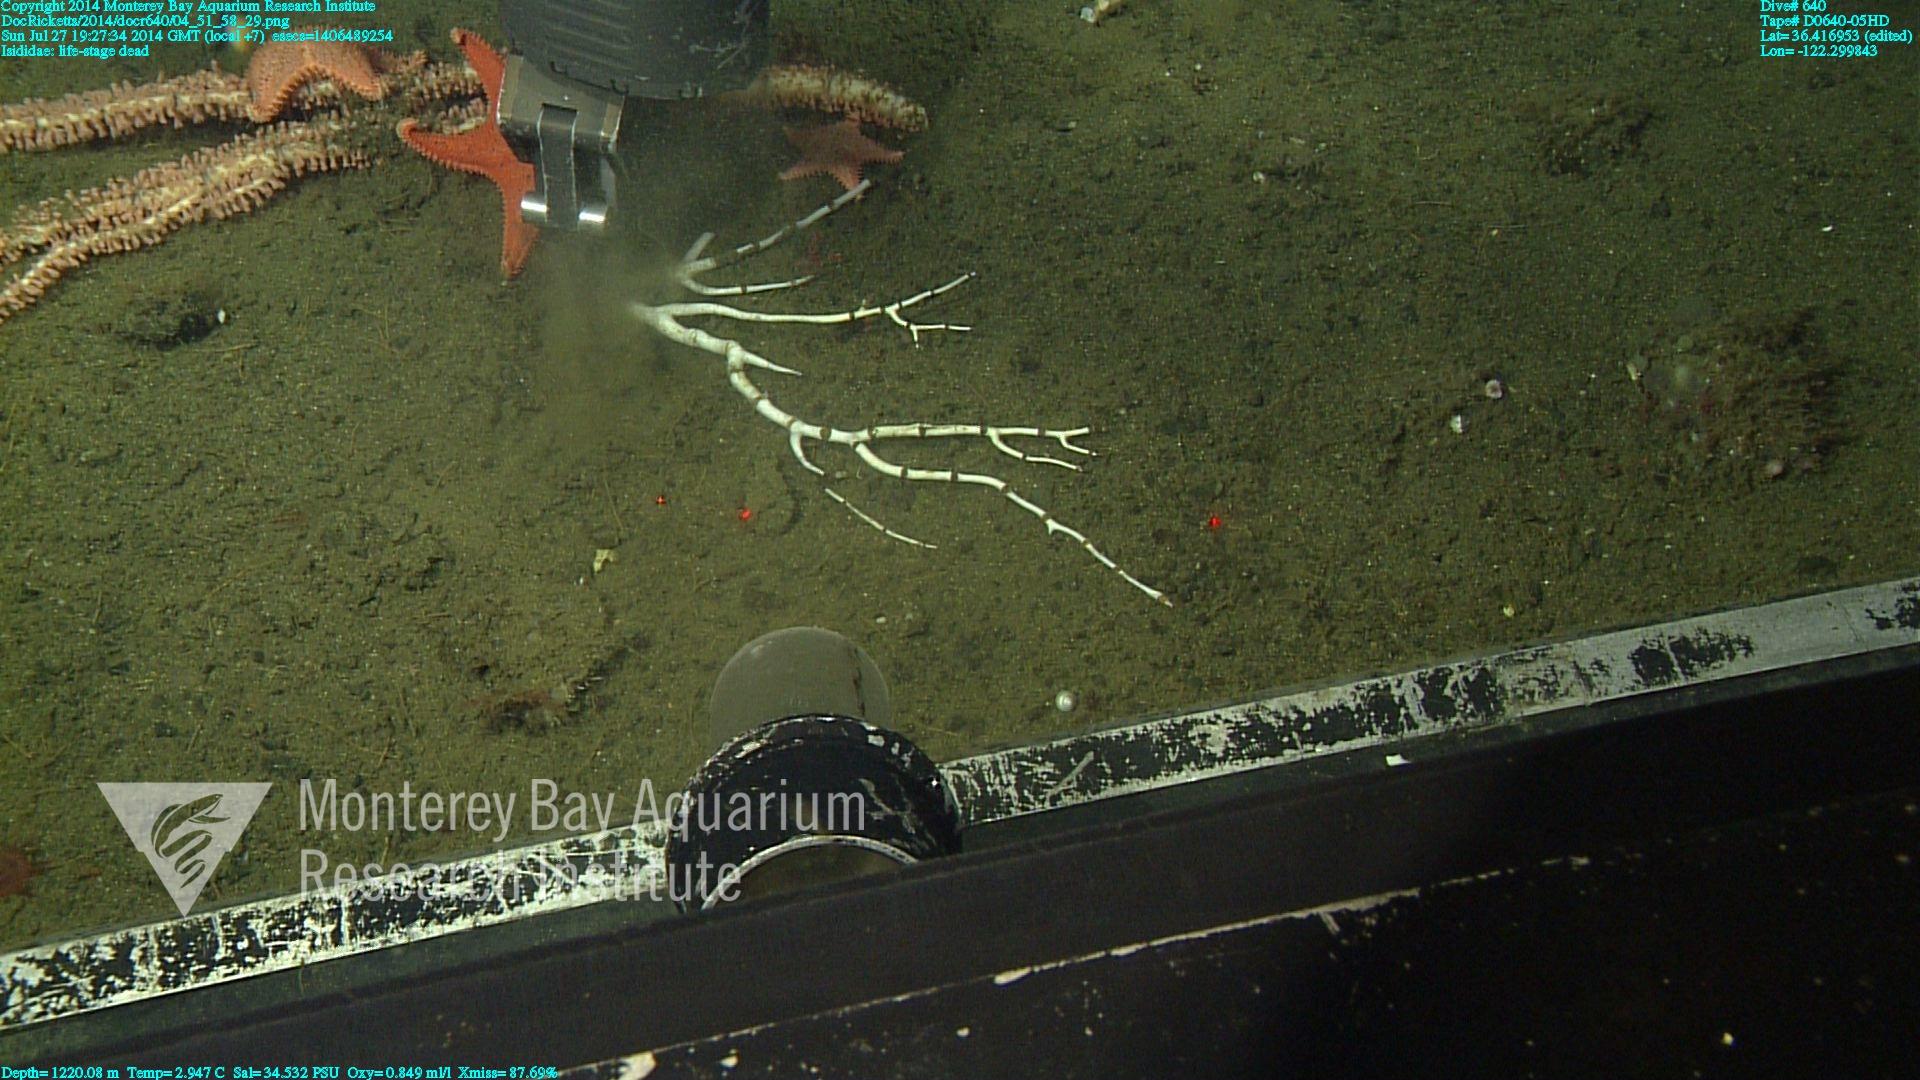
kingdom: Animalia
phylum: Cnidaria
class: Anthozoa
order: Scleralcyonacea
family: Keratoisididae
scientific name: Keratoisididae
